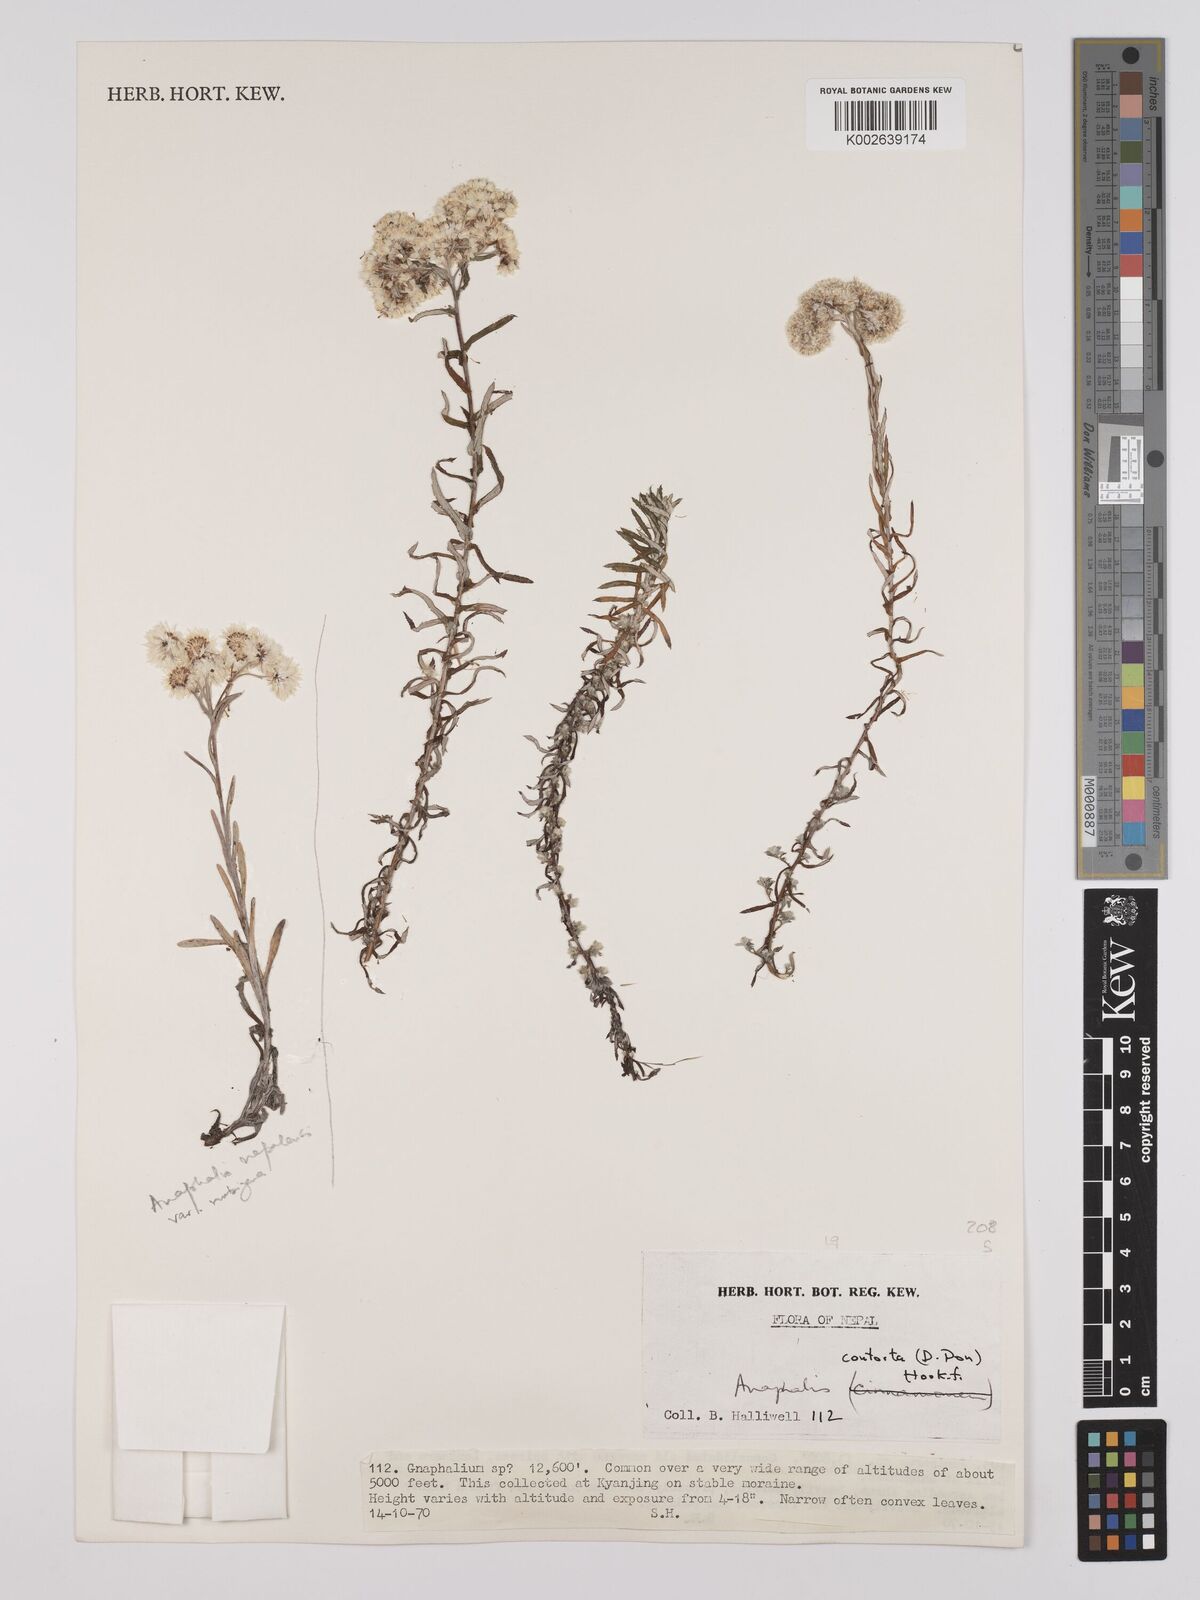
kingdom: Plantae
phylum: Tracheophyta
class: Magnoliopsida
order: Asterales
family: Asteraceae
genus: Anaphalis
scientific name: Anaphalis contorta
